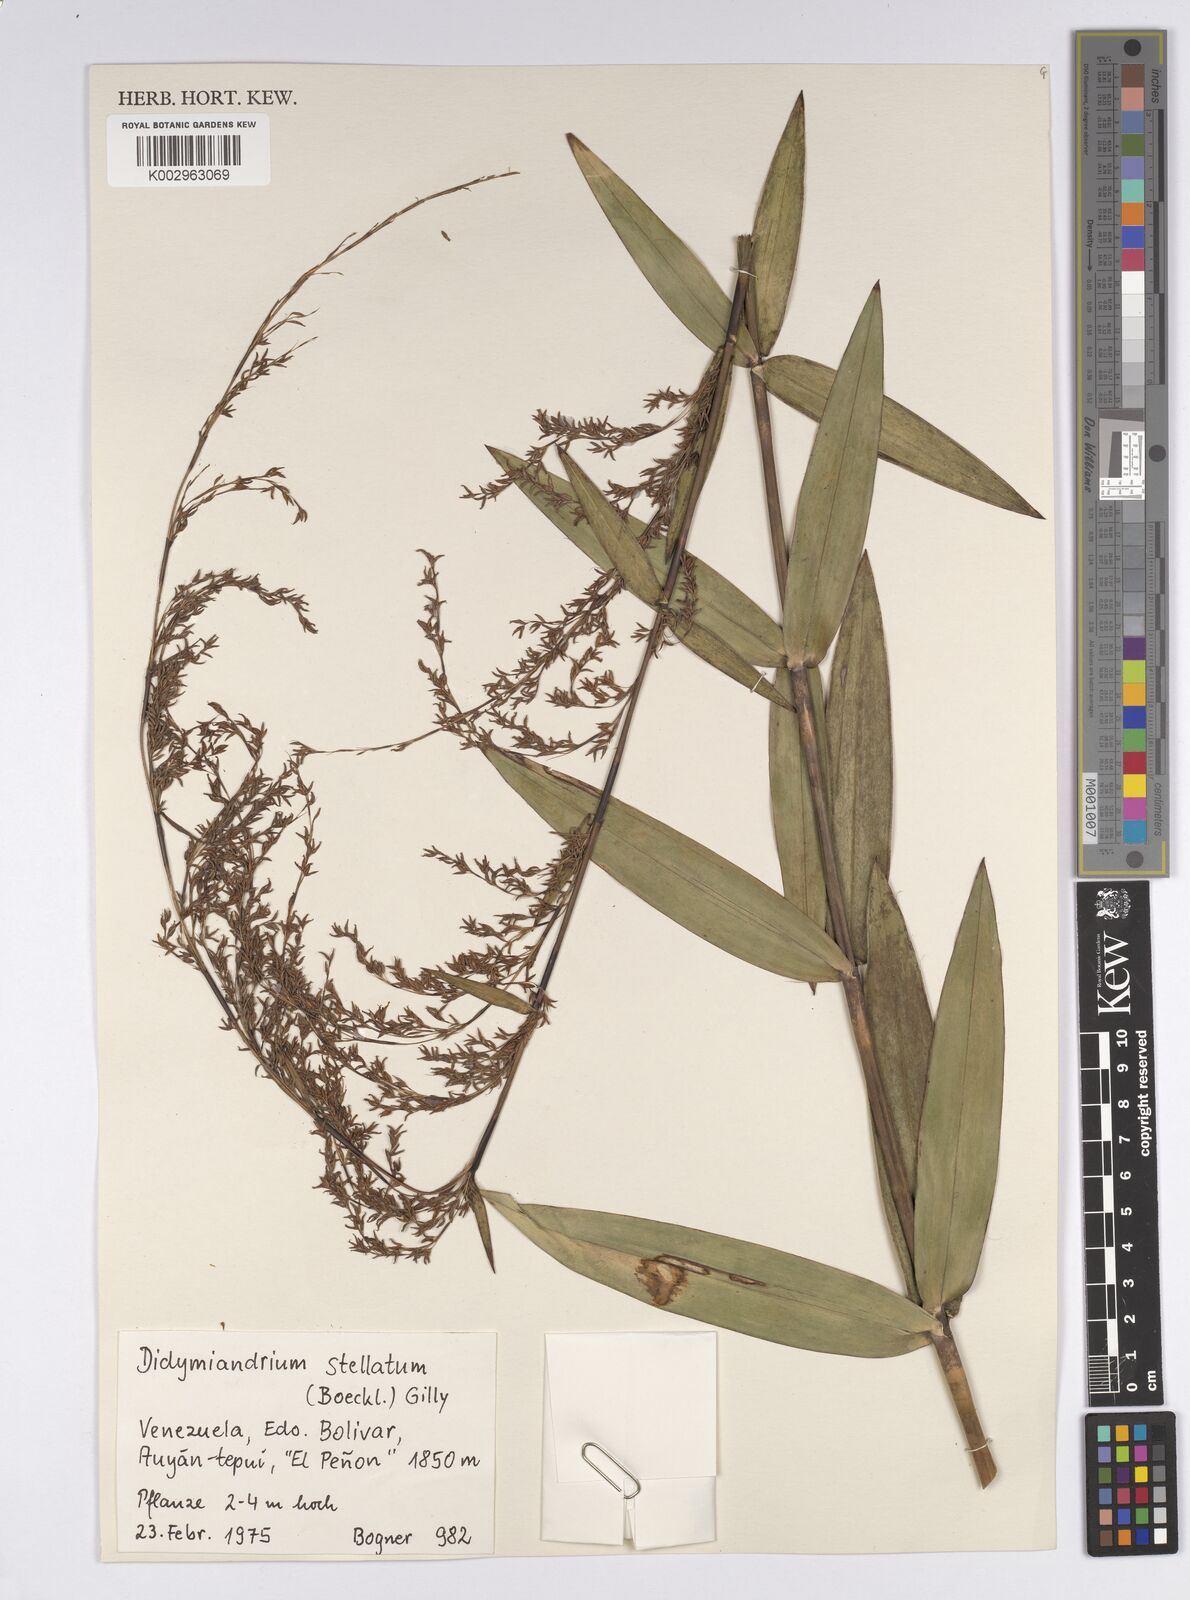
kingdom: Plantae
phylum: Tracheophyta
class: Liliopsida
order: Poales
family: Cyperaceae
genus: Didymiandrum
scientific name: Didymiandrum stellatum
